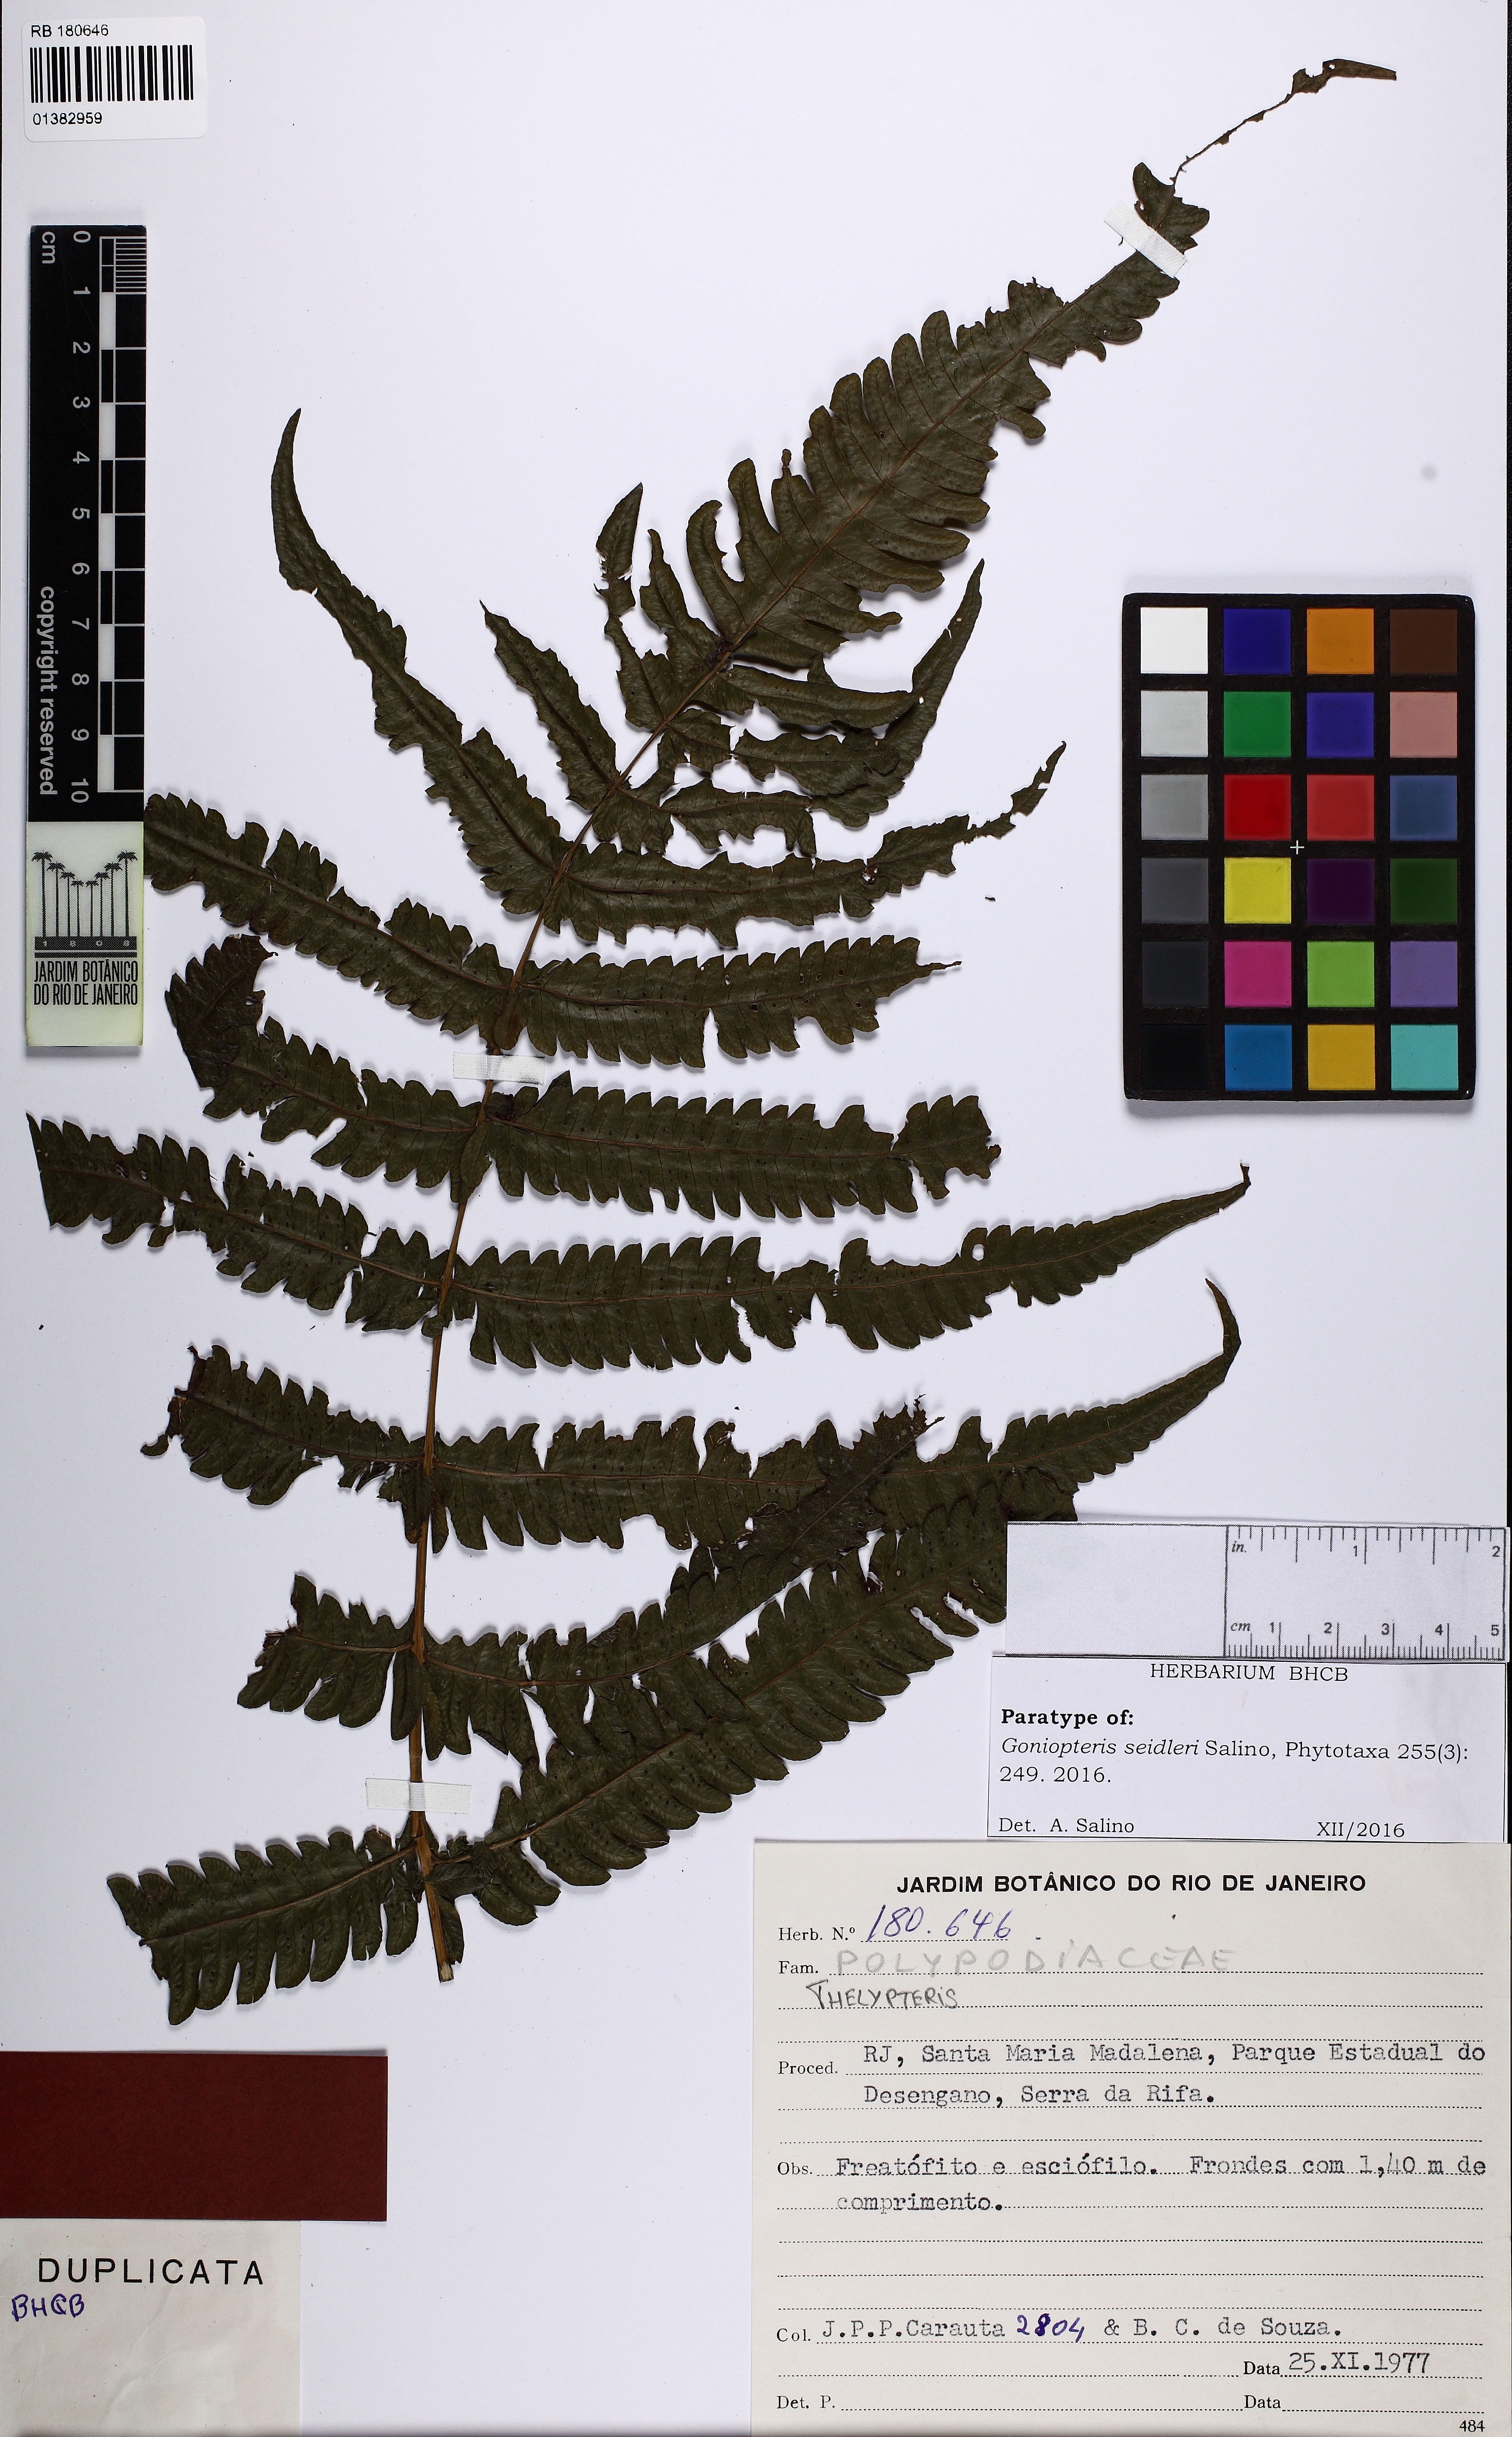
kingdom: Plantae
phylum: Tracheophyta
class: Polypodiopsida
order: Polypodiales
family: Thelypteridaceae
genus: Goniopteris
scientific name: Goniopteris seidleri
